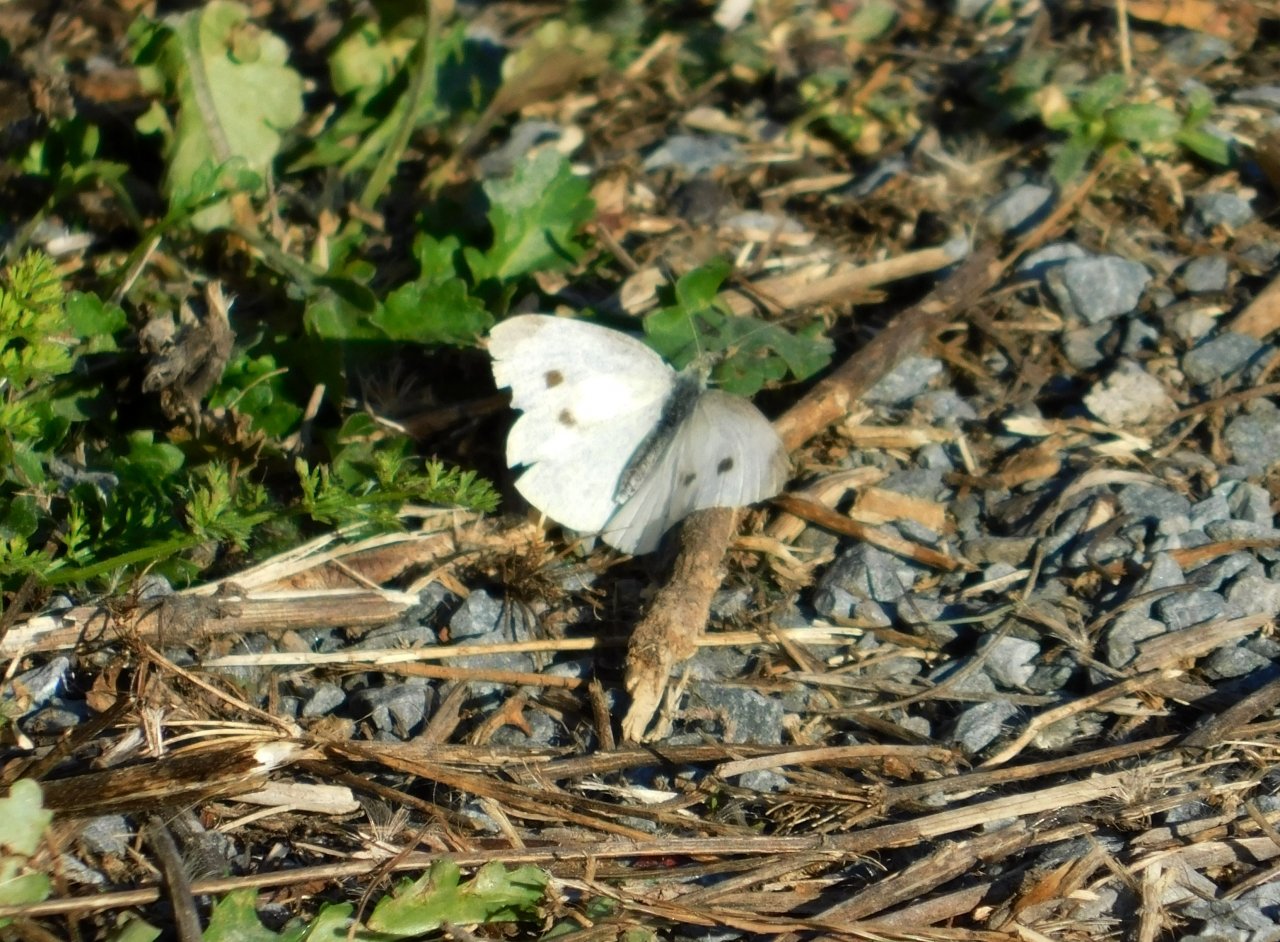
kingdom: Animalia
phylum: Arthropoda
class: Insecta
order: Lepidoptera
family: Pieridae
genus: Pieris
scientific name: Pieris rapae
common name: Cabbage White
